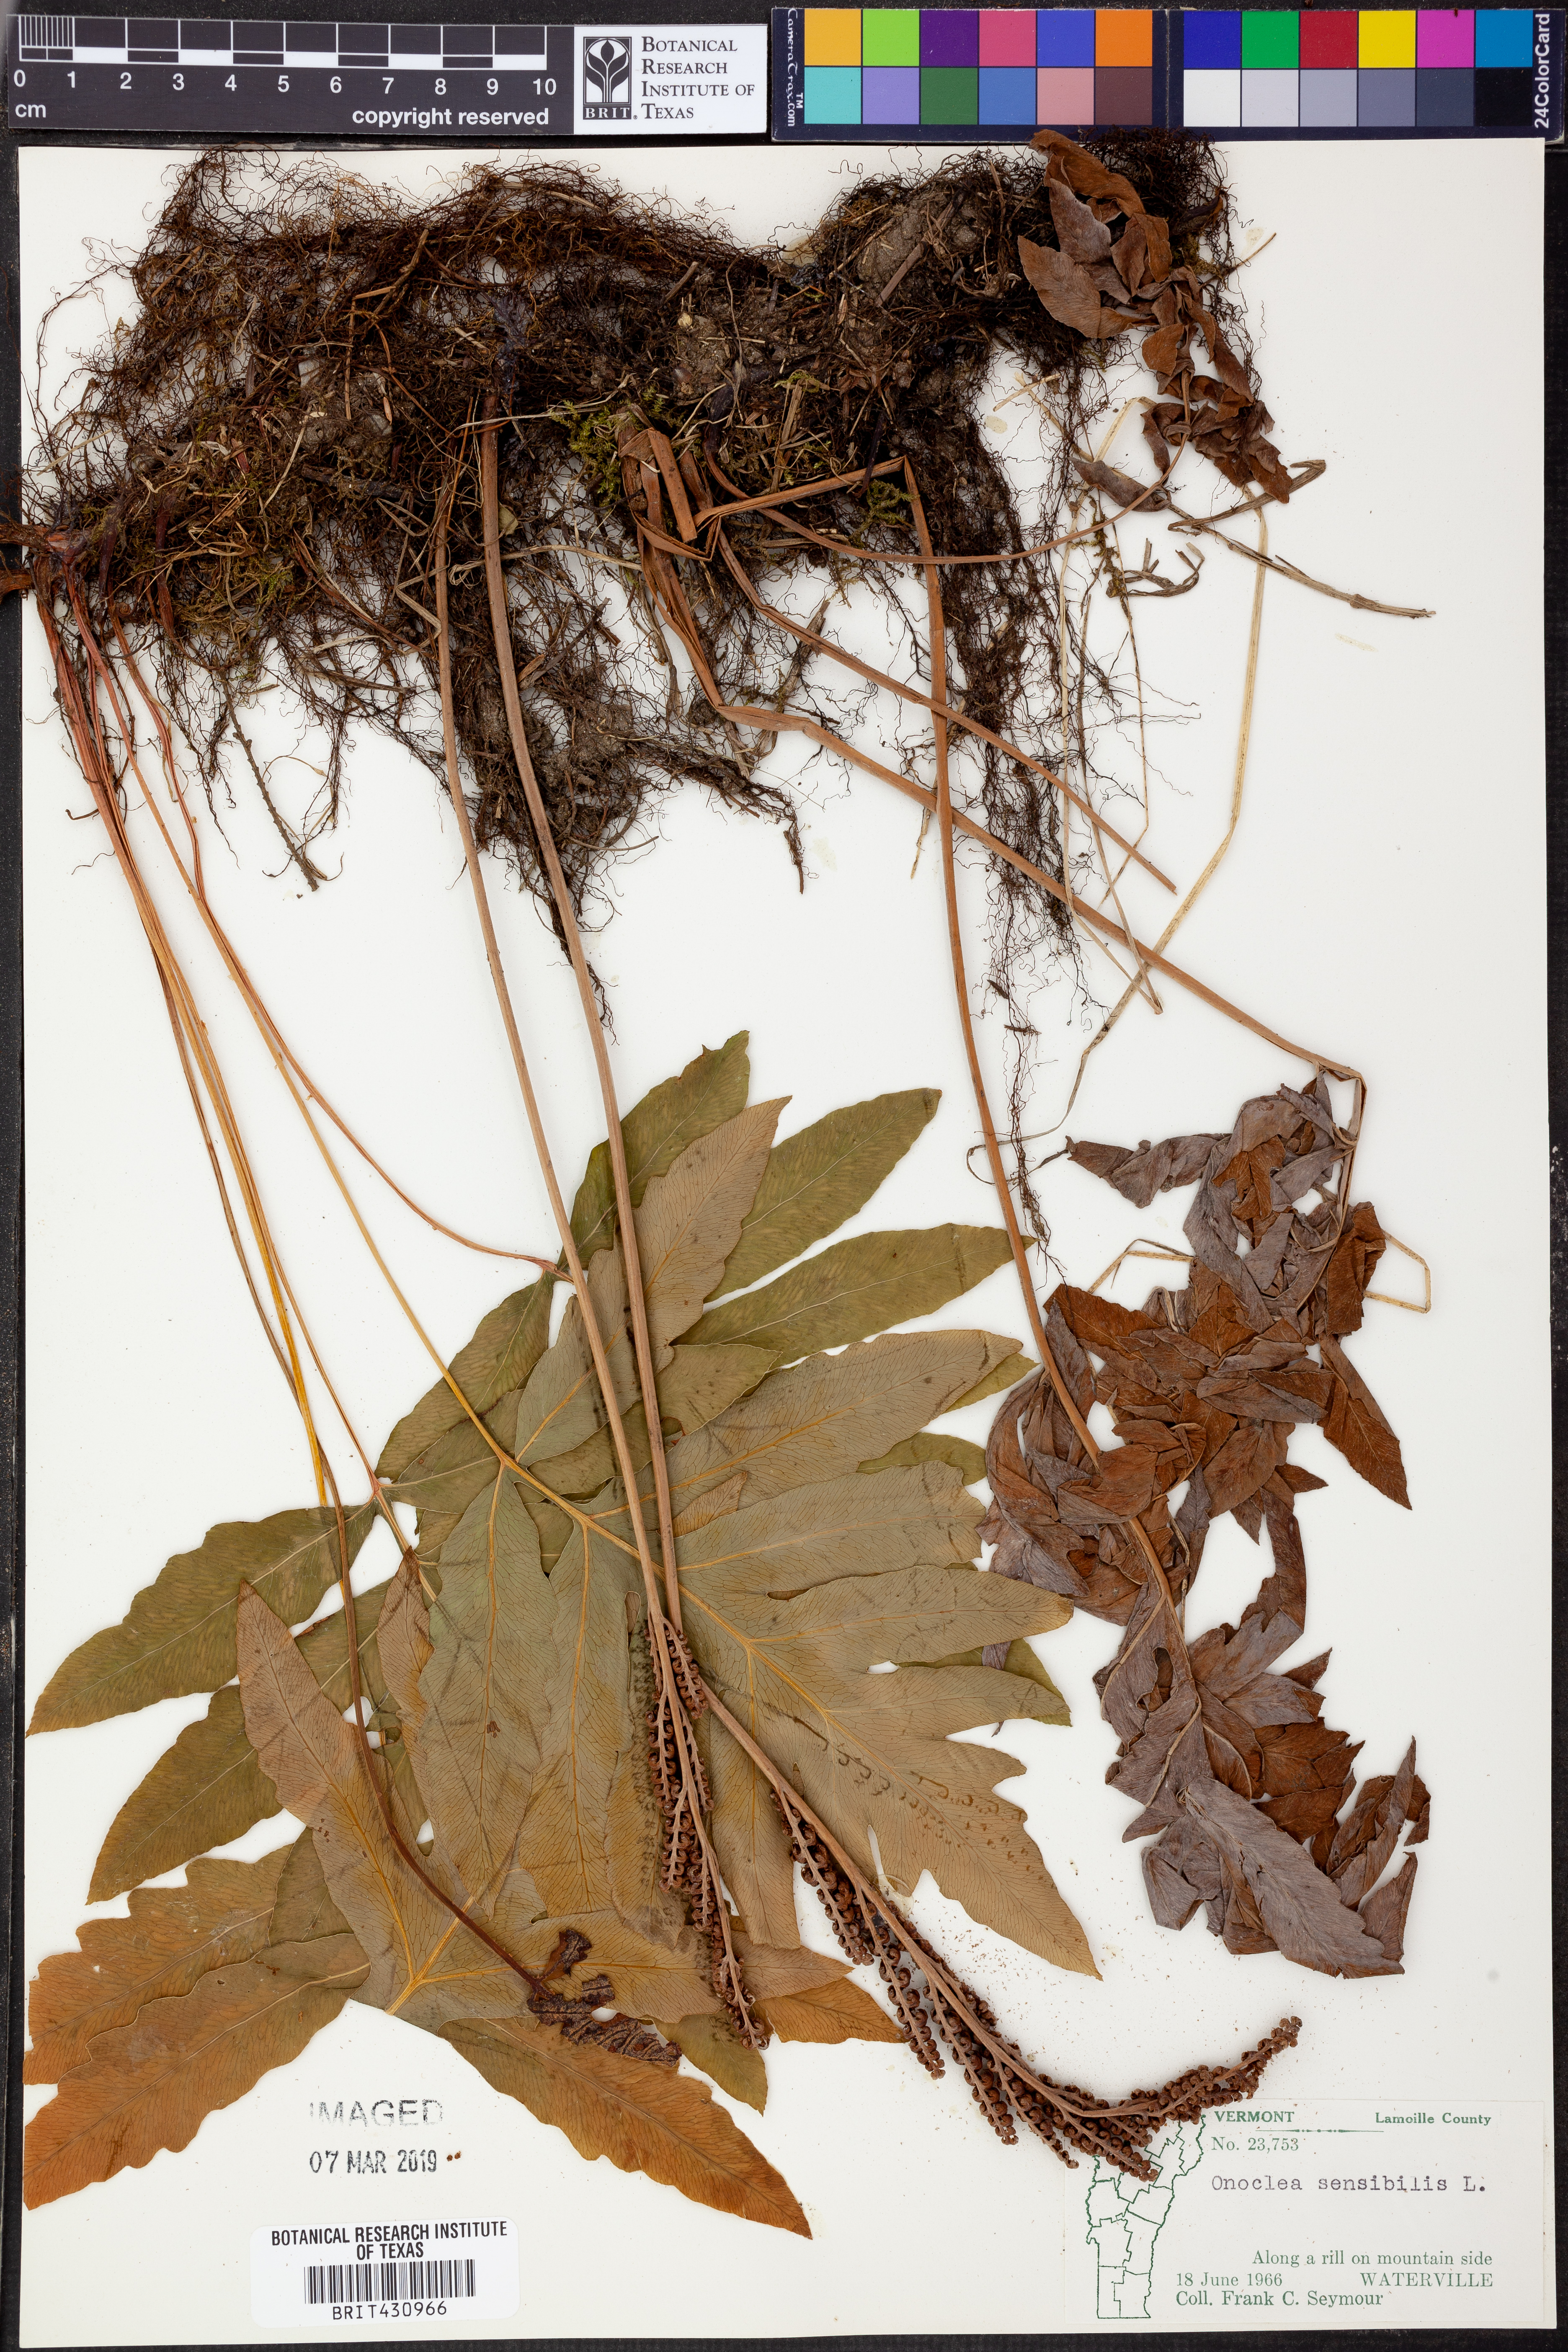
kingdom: Plantae
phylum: Tracheophyta
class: Polypodiopsida
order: Polypodiales
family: Onocleaceae
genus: Onoclea
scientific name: Onoclea sensibilis
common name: Sensitive fern
